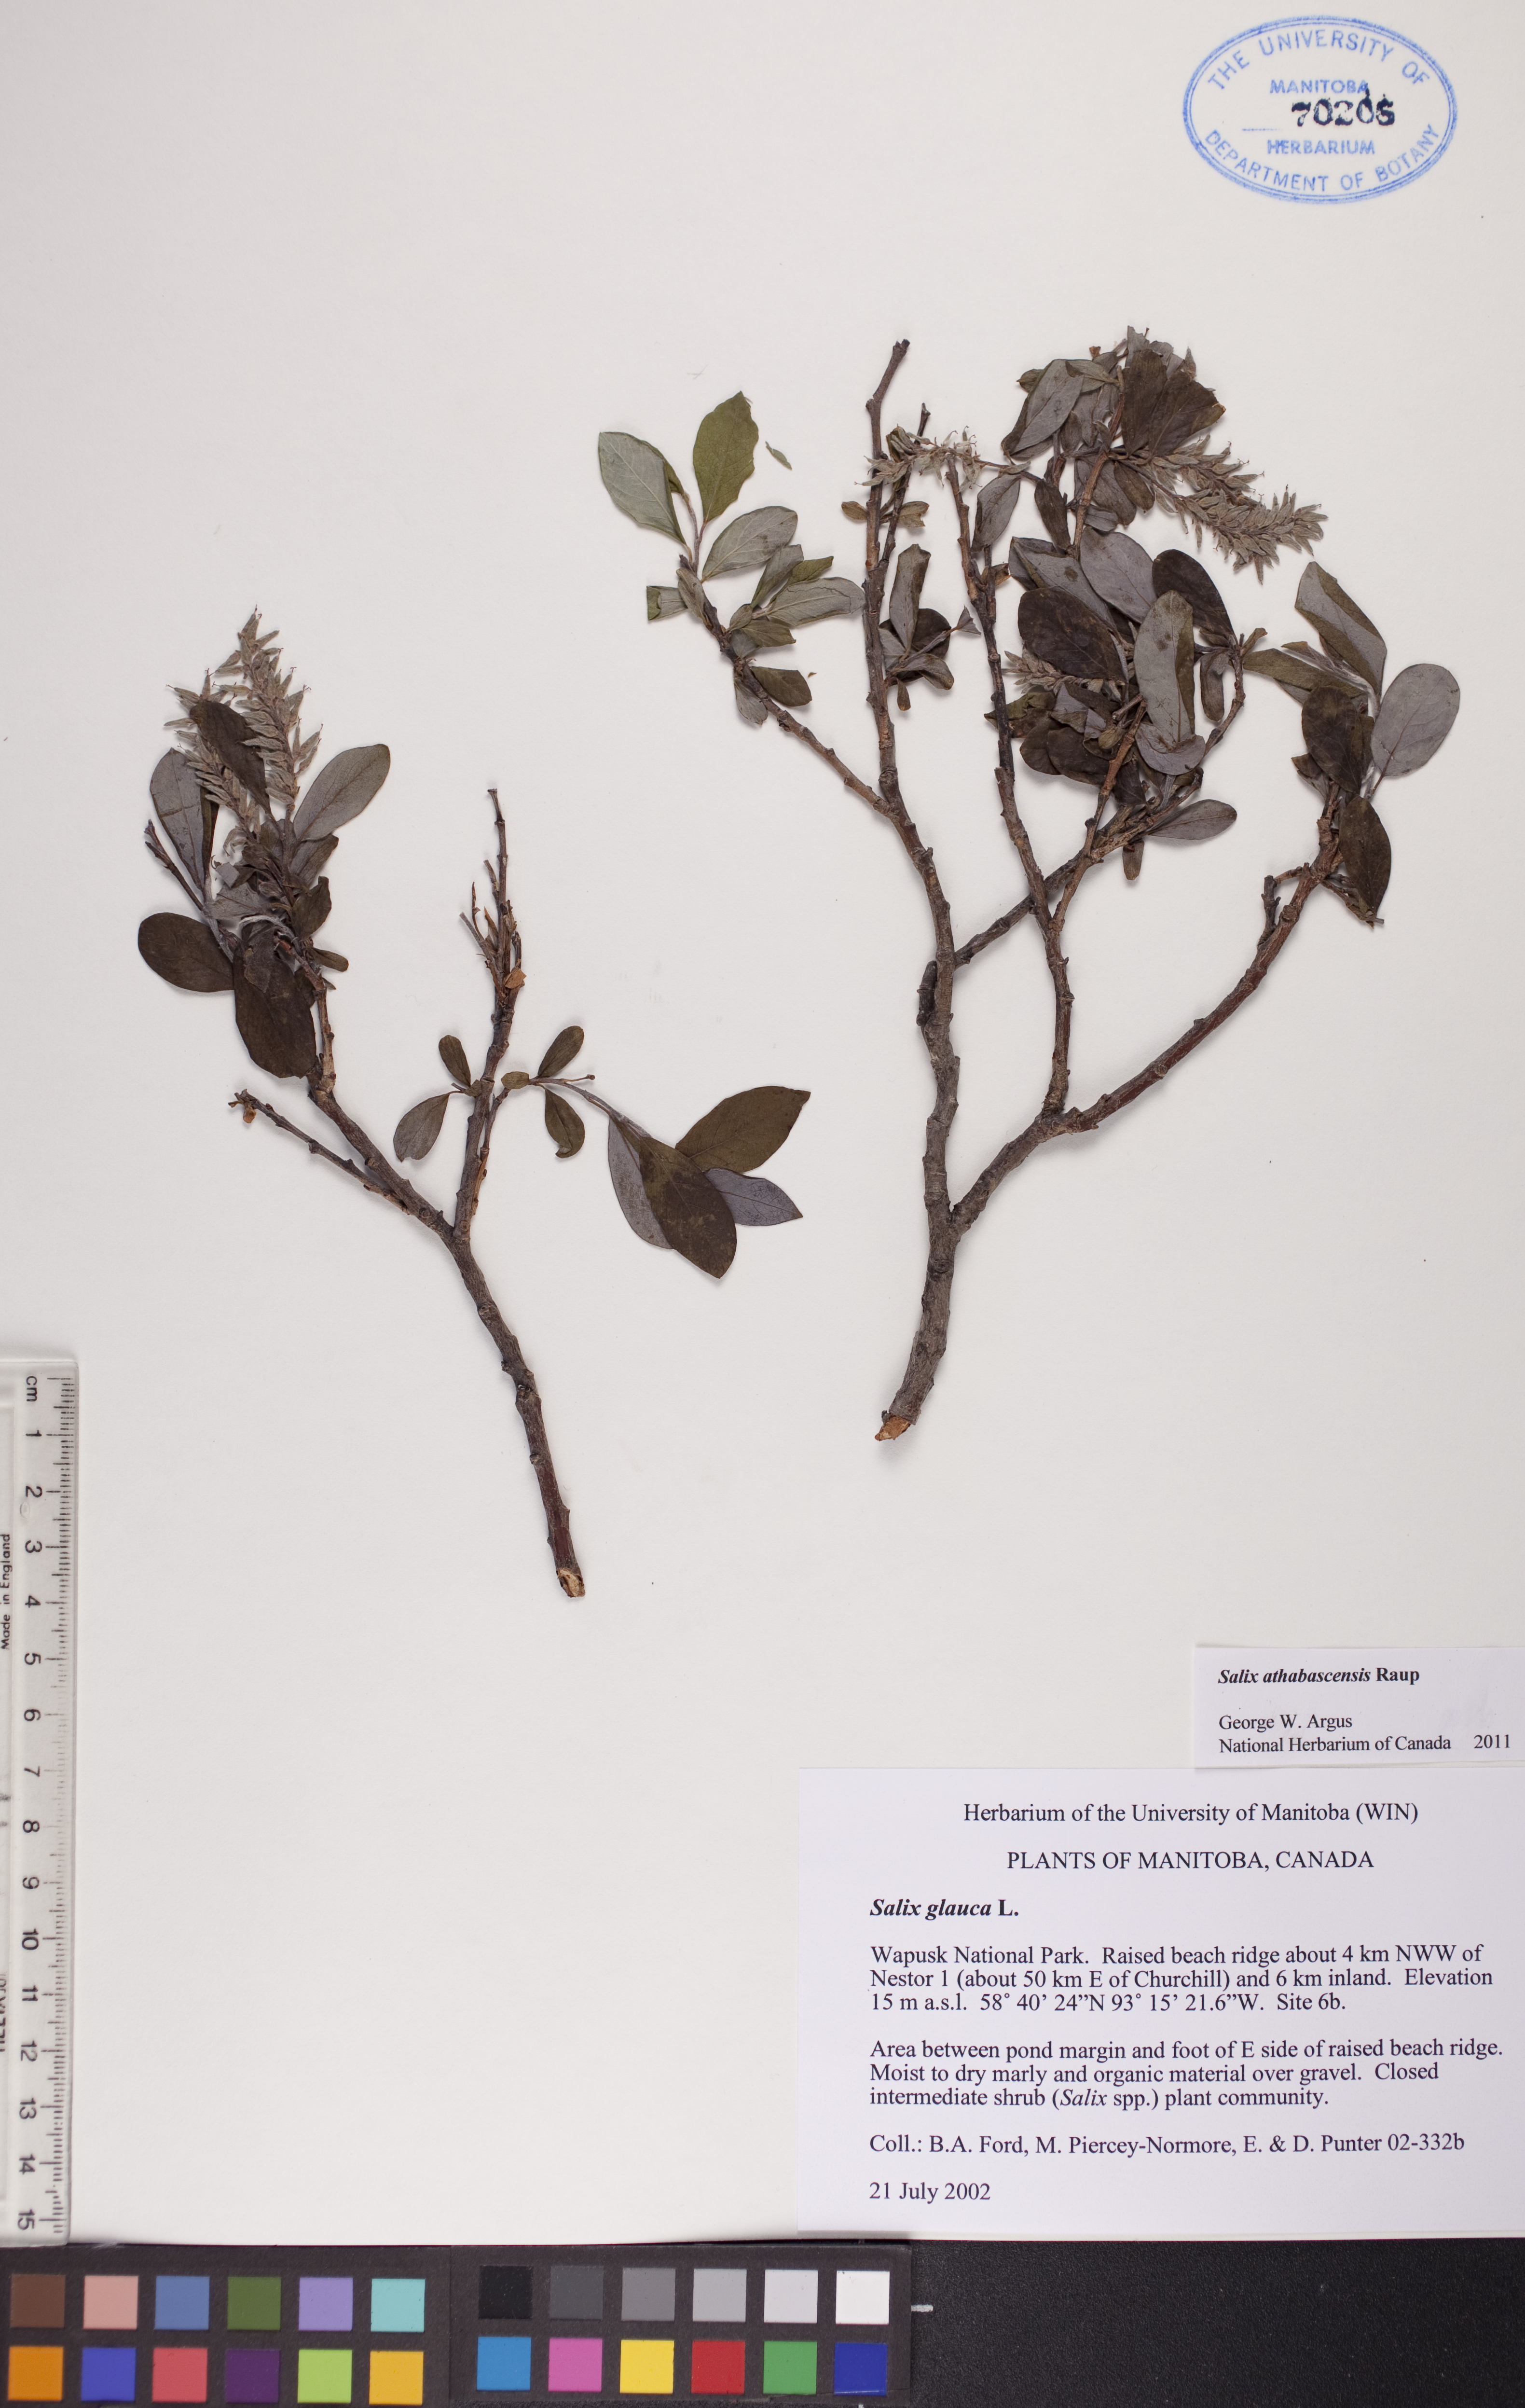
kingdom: Plantae
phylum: Tracheophyta
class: Magnoliopsida
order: Malpighiales
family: Salicaceae
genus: Salix
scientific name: Salix athabascensis
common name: Athabasca willow
